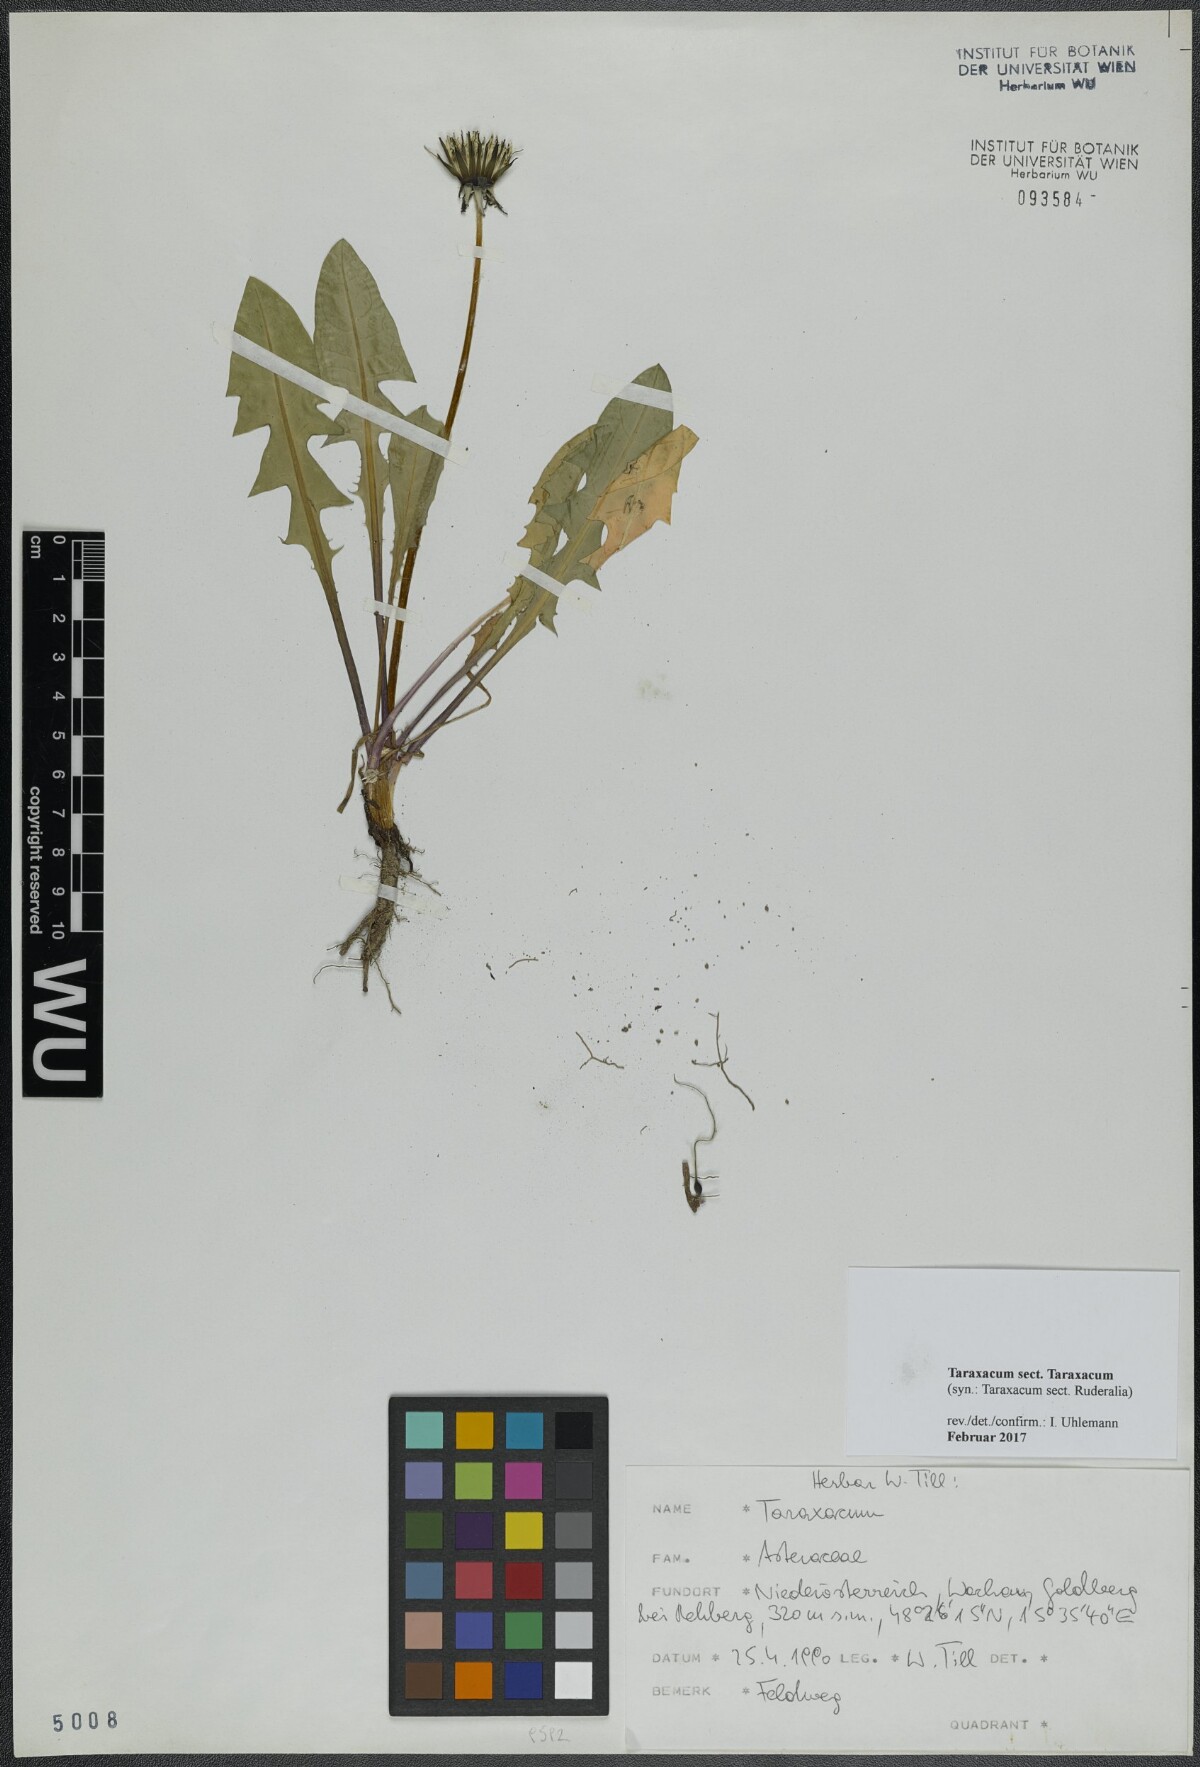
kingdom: Plantae
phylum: Tracheophyta
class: Magnoliopsida
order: Asterales
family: Asteraceae
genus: Taraxacum
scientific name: Taraxacum
